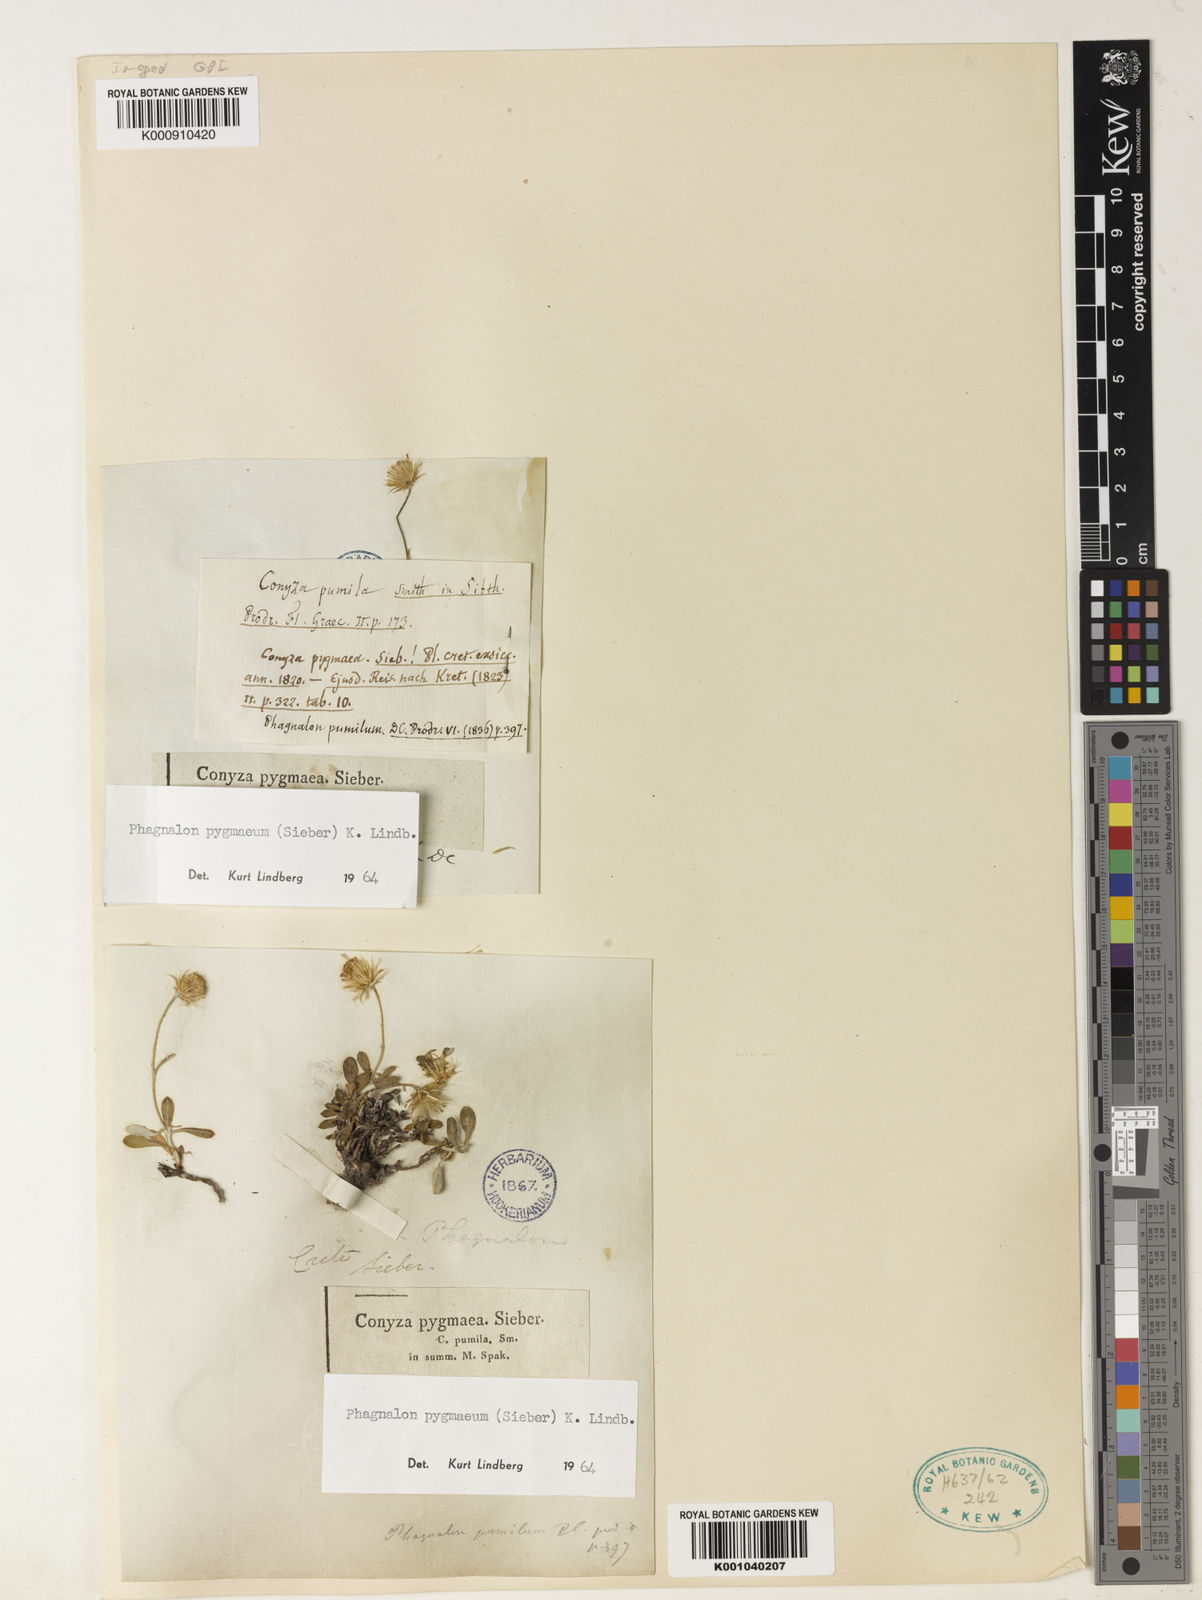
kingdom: Plantae
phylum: Tracheophyta
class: Magnoliopsida
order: Asterales
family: Asteraceae
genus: Phagnalon
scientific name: Phagnalon
